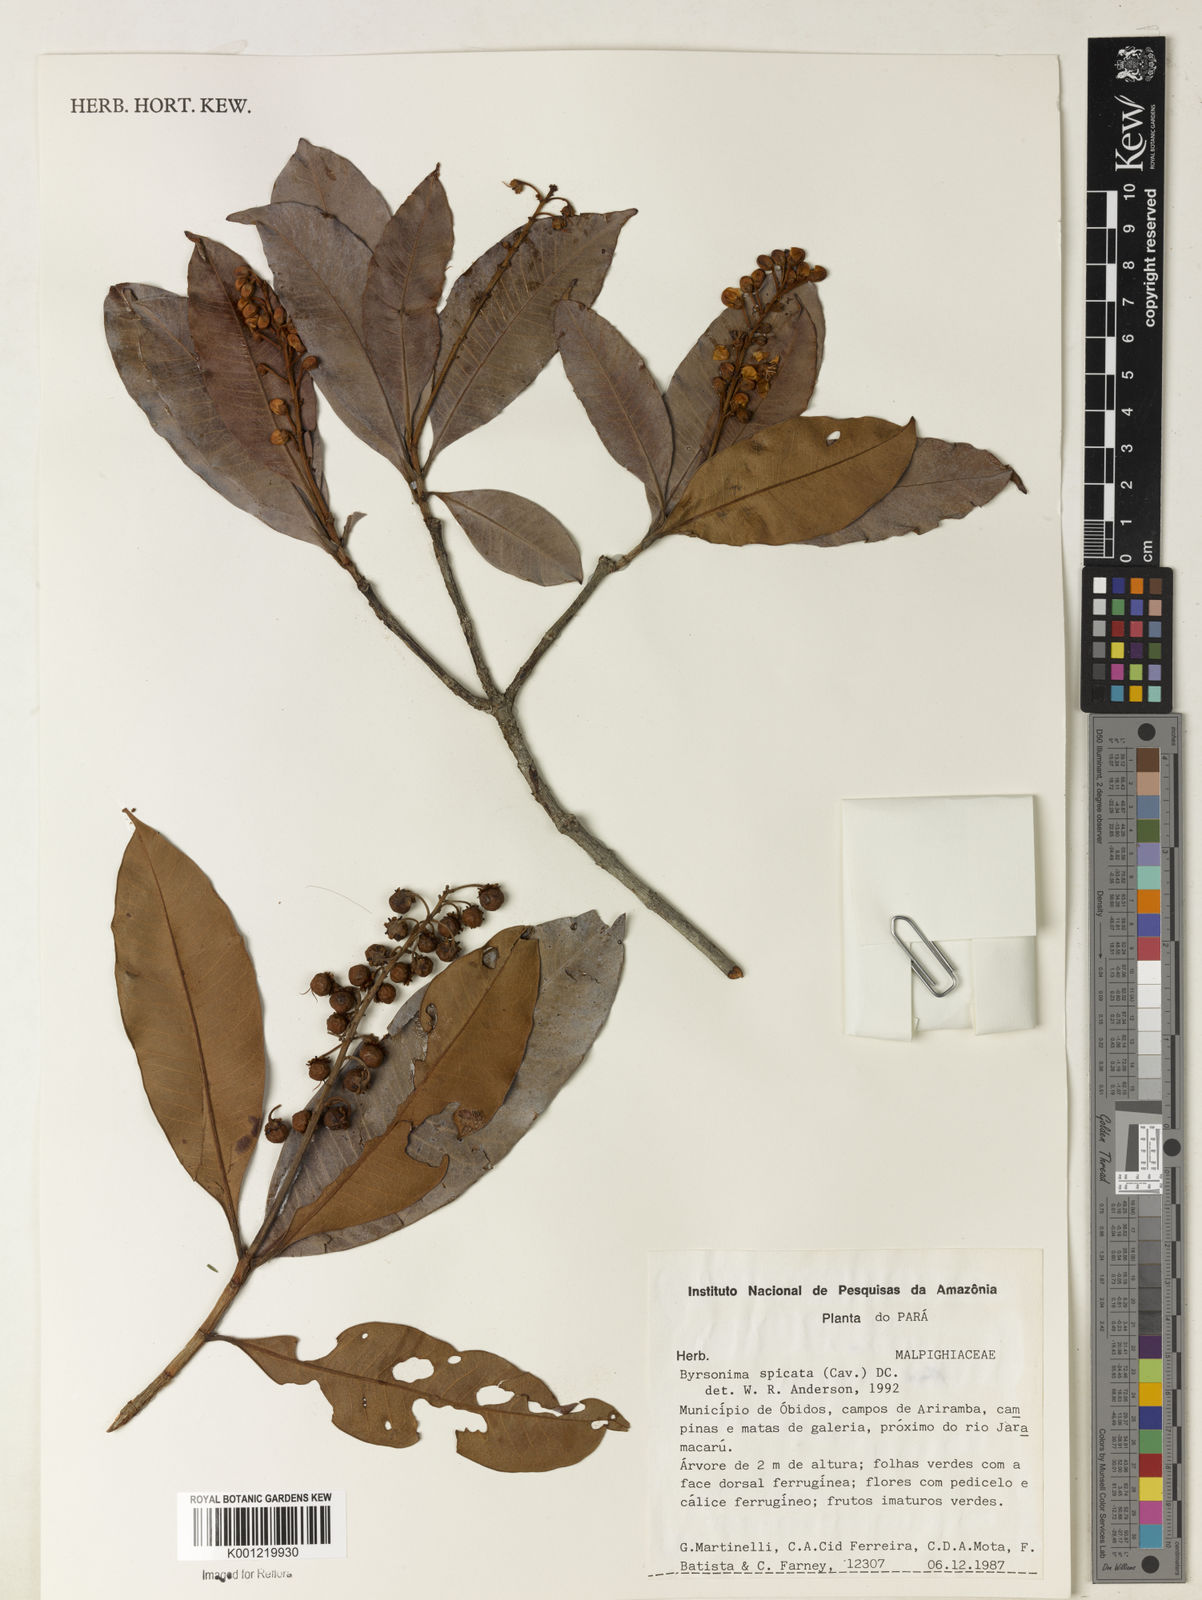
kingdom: Plantae
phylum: Tracheophyta
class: Magnoliopsida
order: Malpighiales
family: Malpighiaceae
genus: Byrsonima
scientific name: Byrsonima
